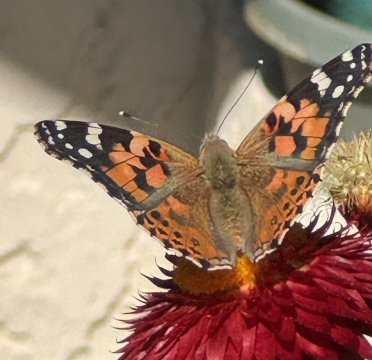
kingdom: Animalia
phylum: Arthropoda
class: Insecta
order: Lepidoptera
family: Nymphalidae
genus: Vanessa
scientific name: Vanessa cardui
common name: Painted Lady
